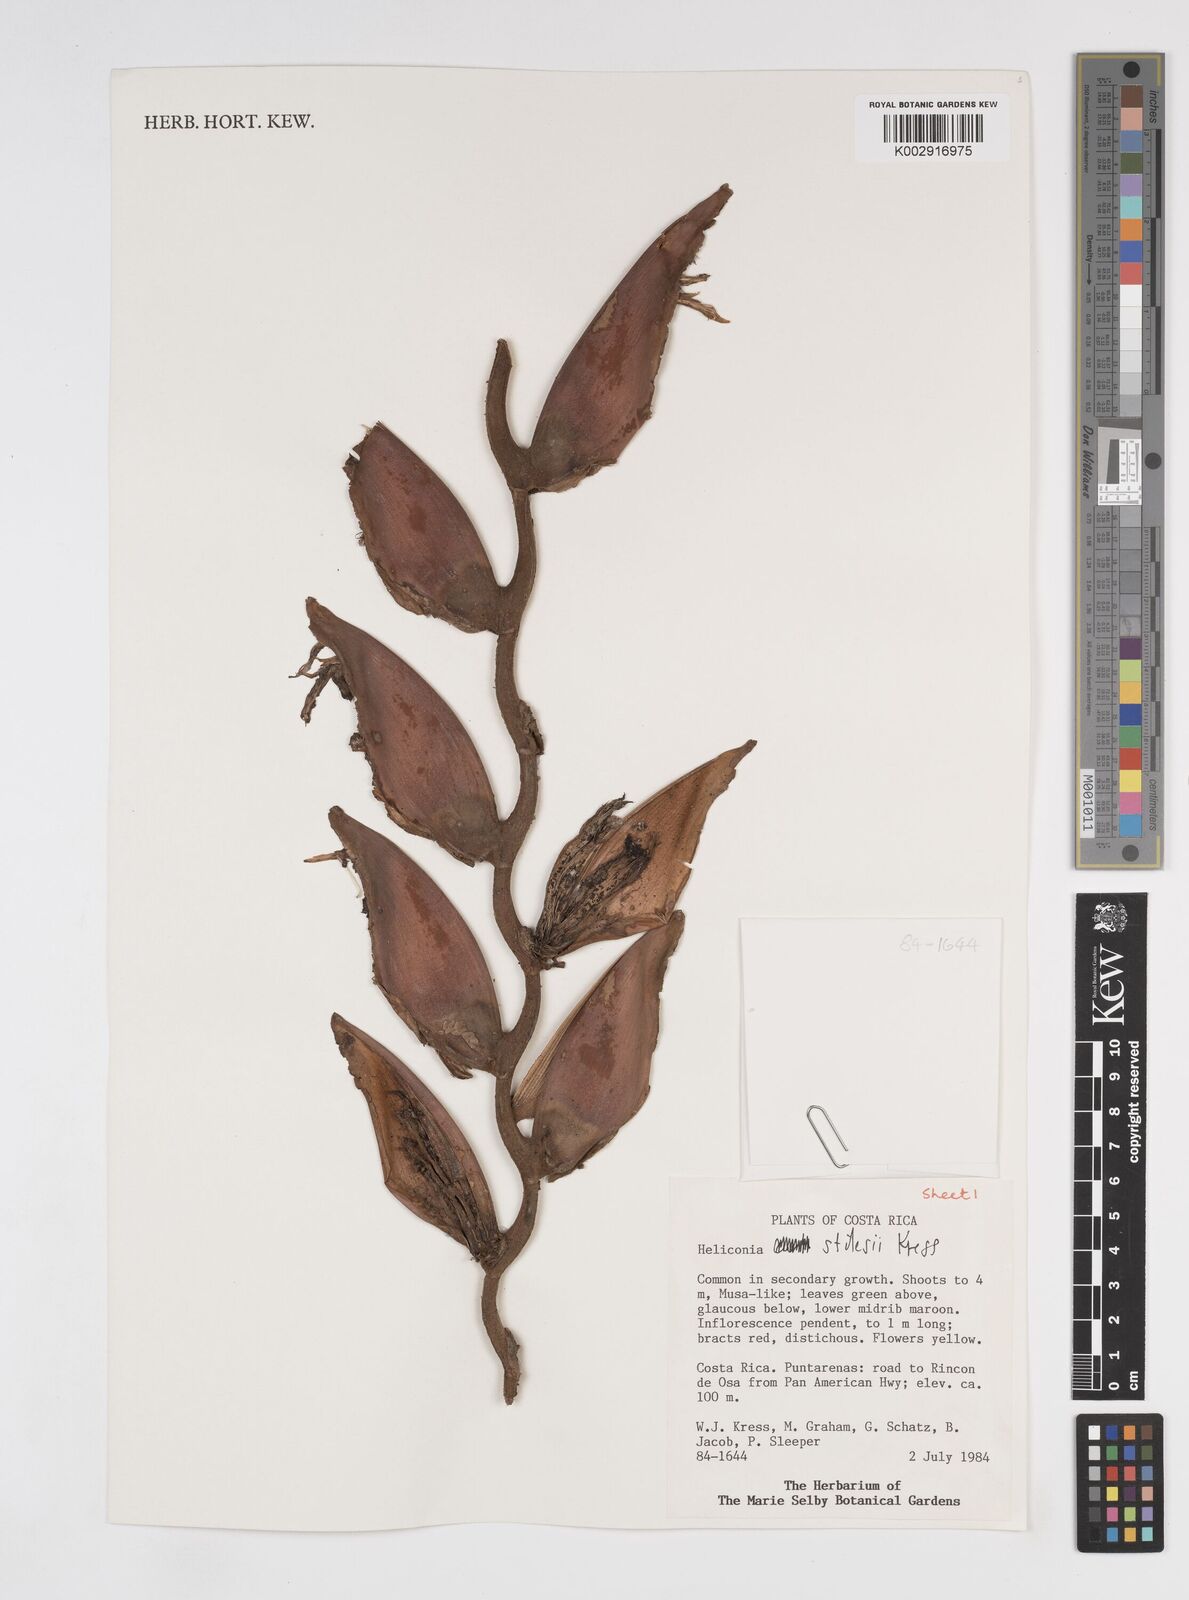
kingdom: Plantae
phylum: Tracheophyta
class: Liliopsida
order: Zingiberales
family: Heliconiaceae
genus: Heliconia
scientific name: Heliconia stilesii
